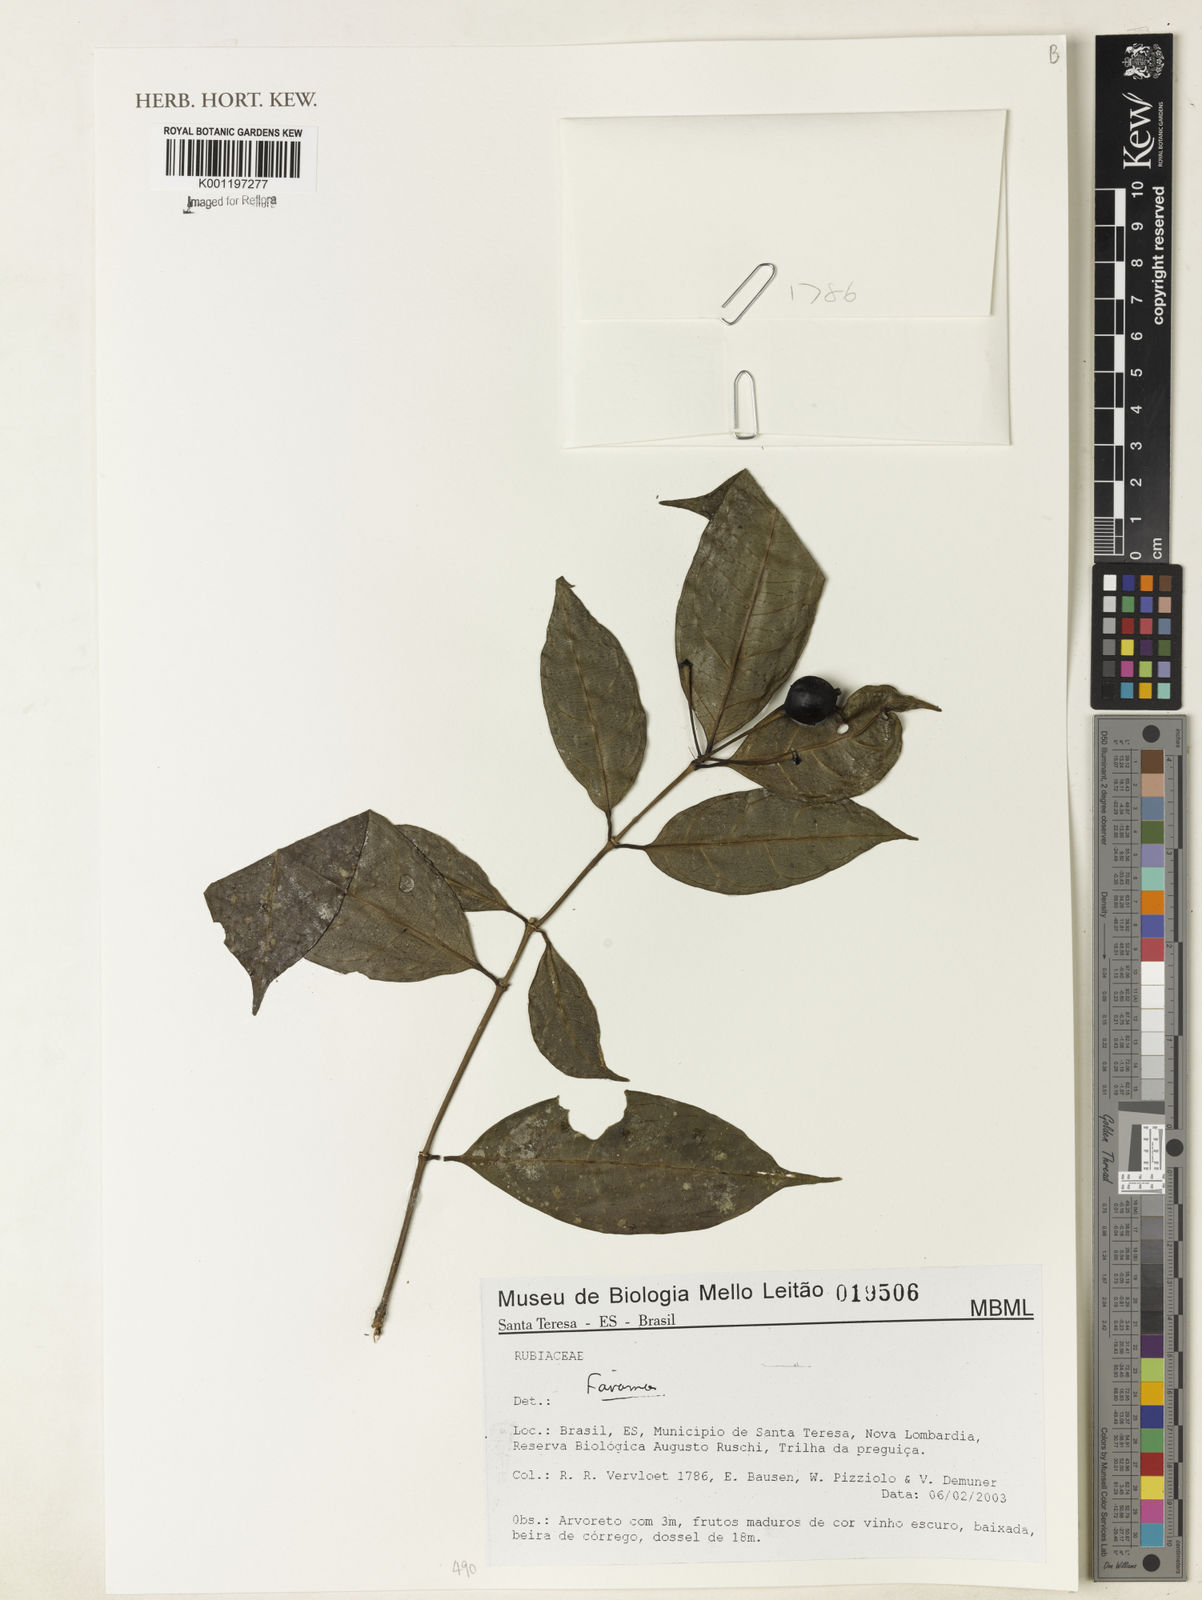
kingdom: Plantae
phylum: Tracheophyta
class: Magnoliopsida
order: Gentianales
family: Rubiaceae
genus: Faramea
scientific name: Faramea
